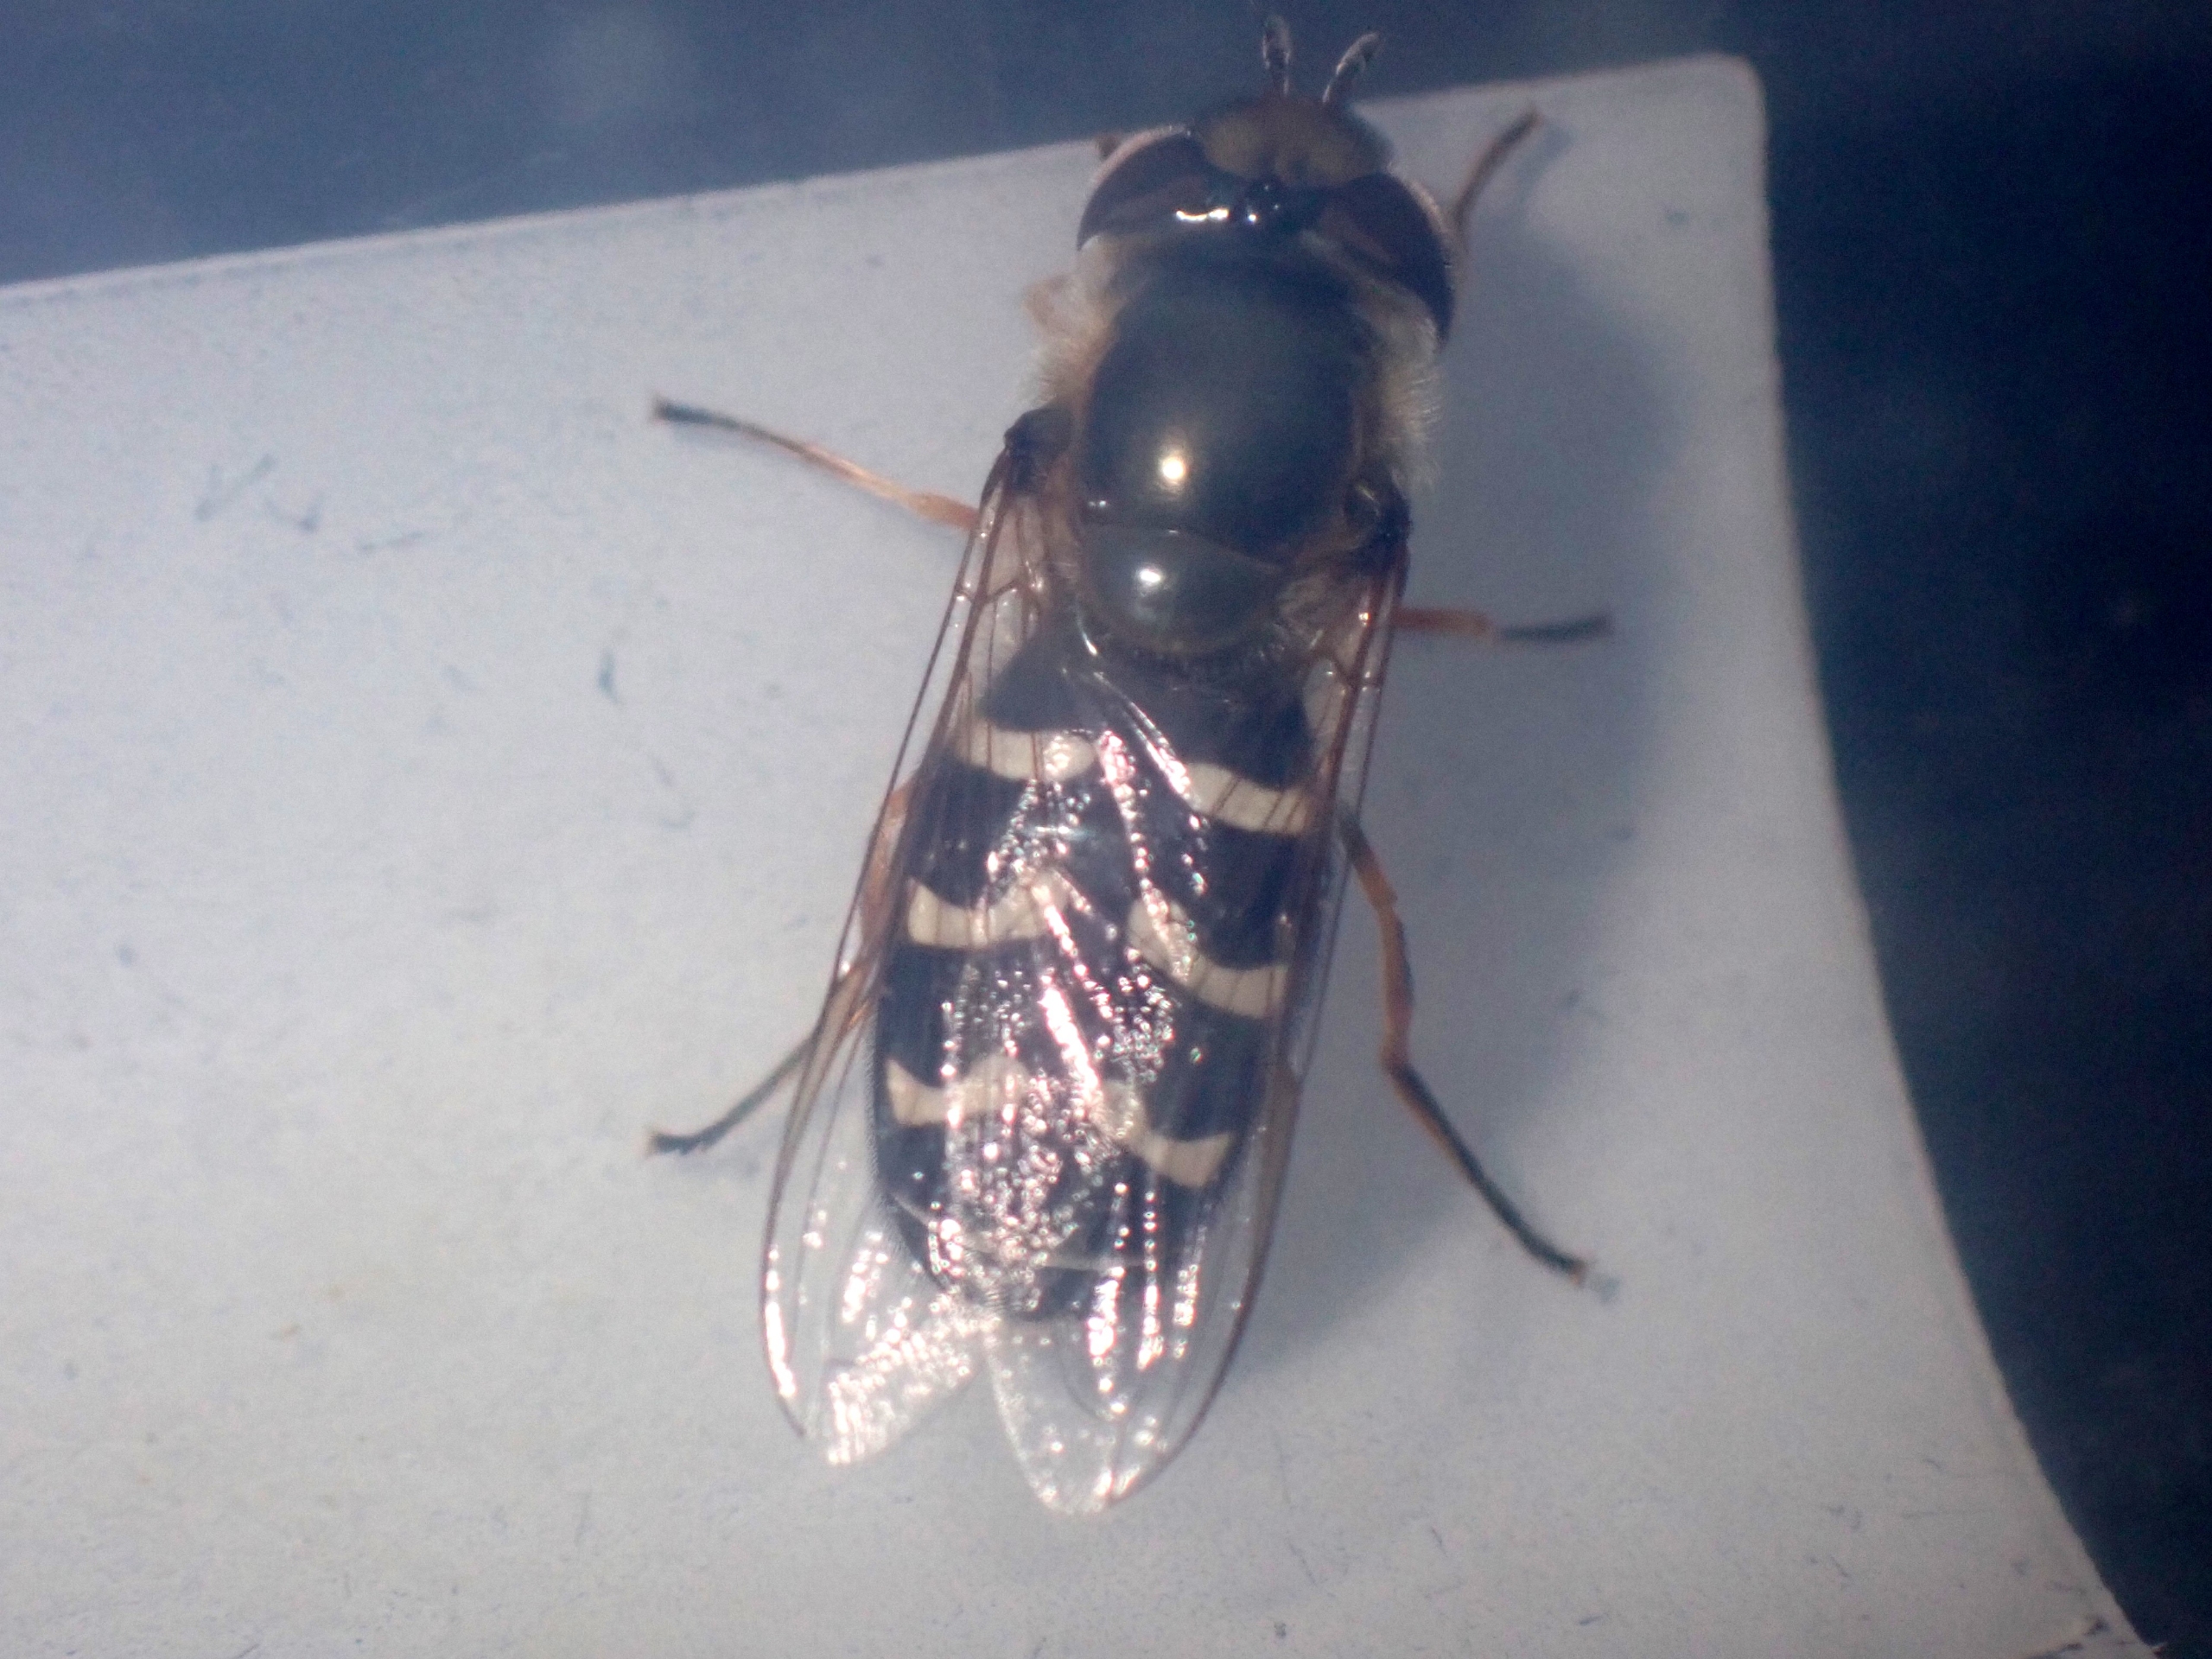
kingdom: Animalia
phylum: Arthropoda
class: Insecta
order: Diptera
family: Syrphidae
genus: Scaeva
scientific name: Scaeva pyrastri
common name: Hvidplettet agersvirreflue
